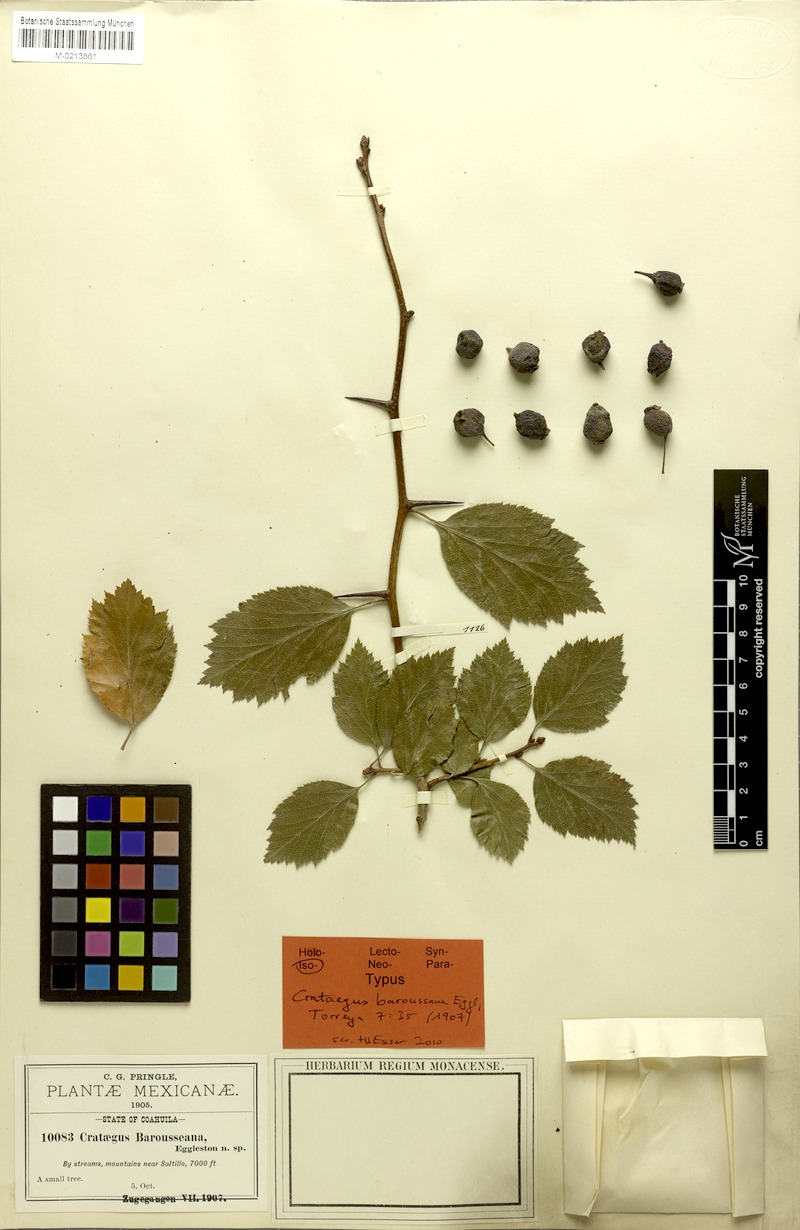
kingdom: Plantae
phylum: Tracheophyta
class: Magnoliopsida
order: Rosales
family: Rosaceae
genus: Crataegus
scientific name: Crataegus baroussana
